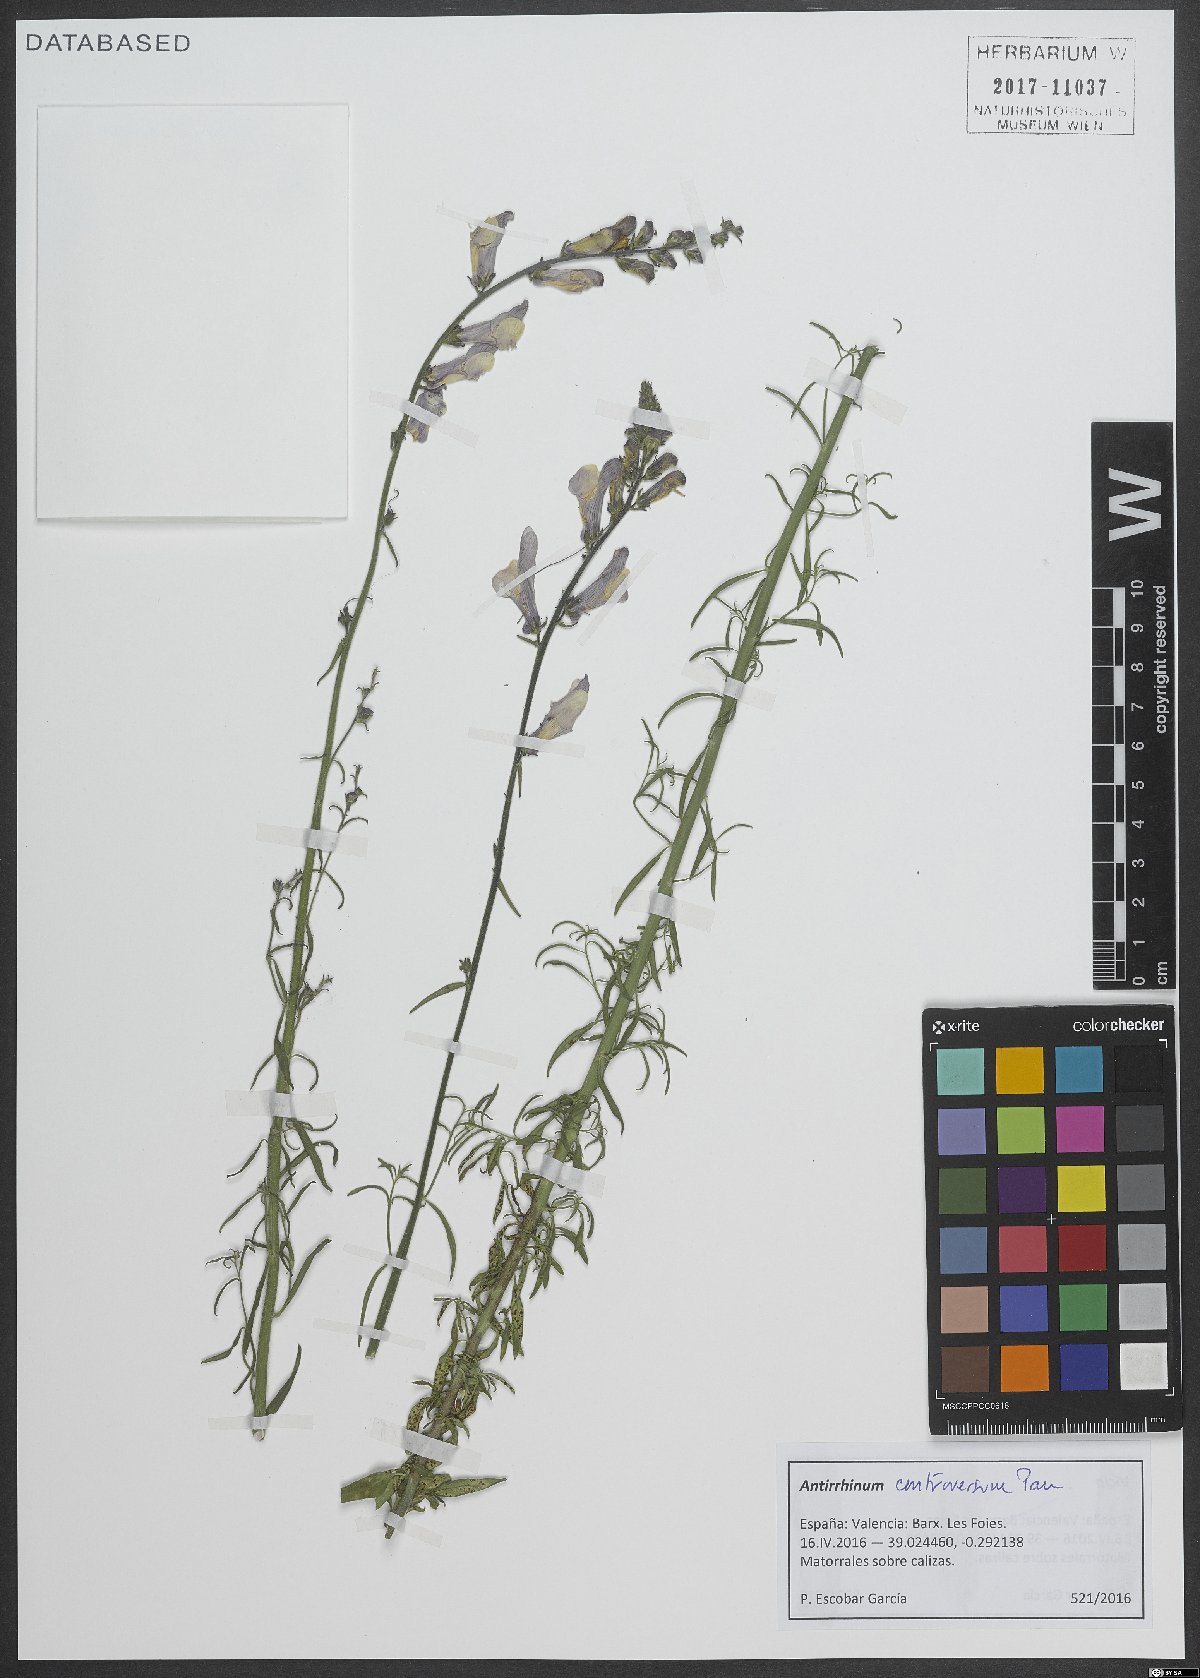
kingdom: Plantae
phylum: Tracheophyta
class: Magnoliopsida
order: Lamiales
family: Plantaginaceae
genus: Antirrhinum
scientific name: Antirrhinum controversum
